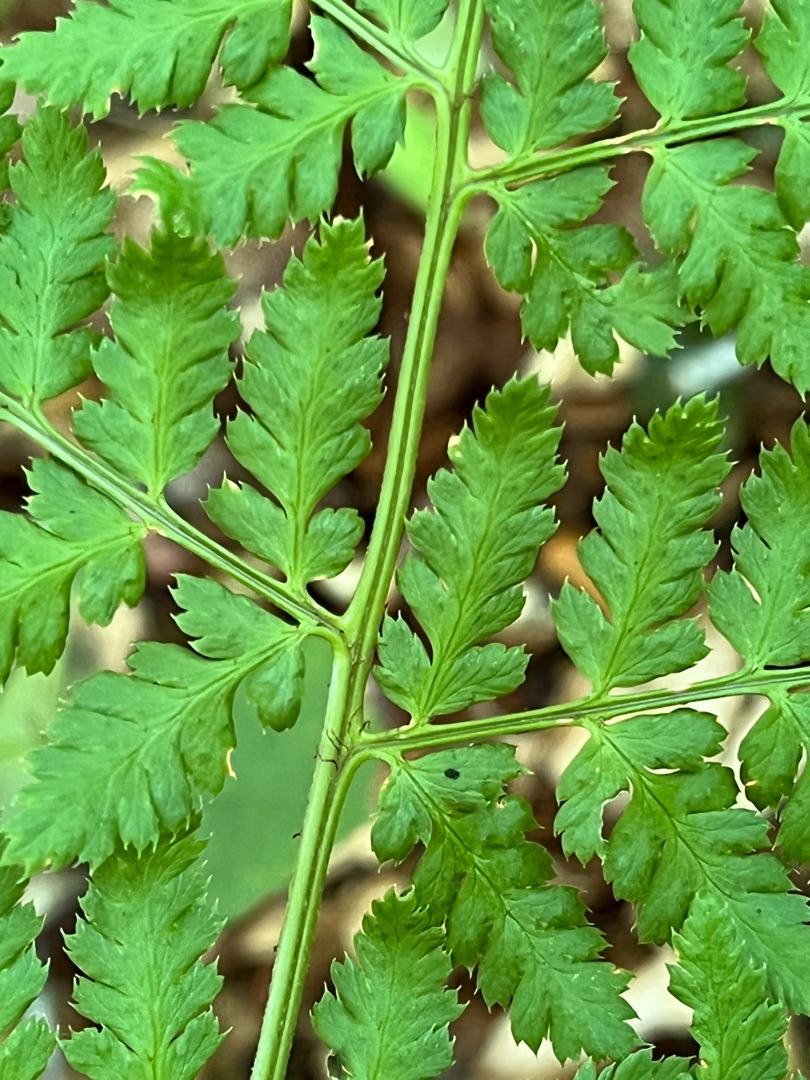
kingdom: Plantae
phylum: Tracheophyta
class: Polypodiopsida
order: Polypodiales
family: Dryopteridaceae
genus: Dryopteris
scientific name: Dryopteris dilatata
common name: Bredbladet mangeløv
